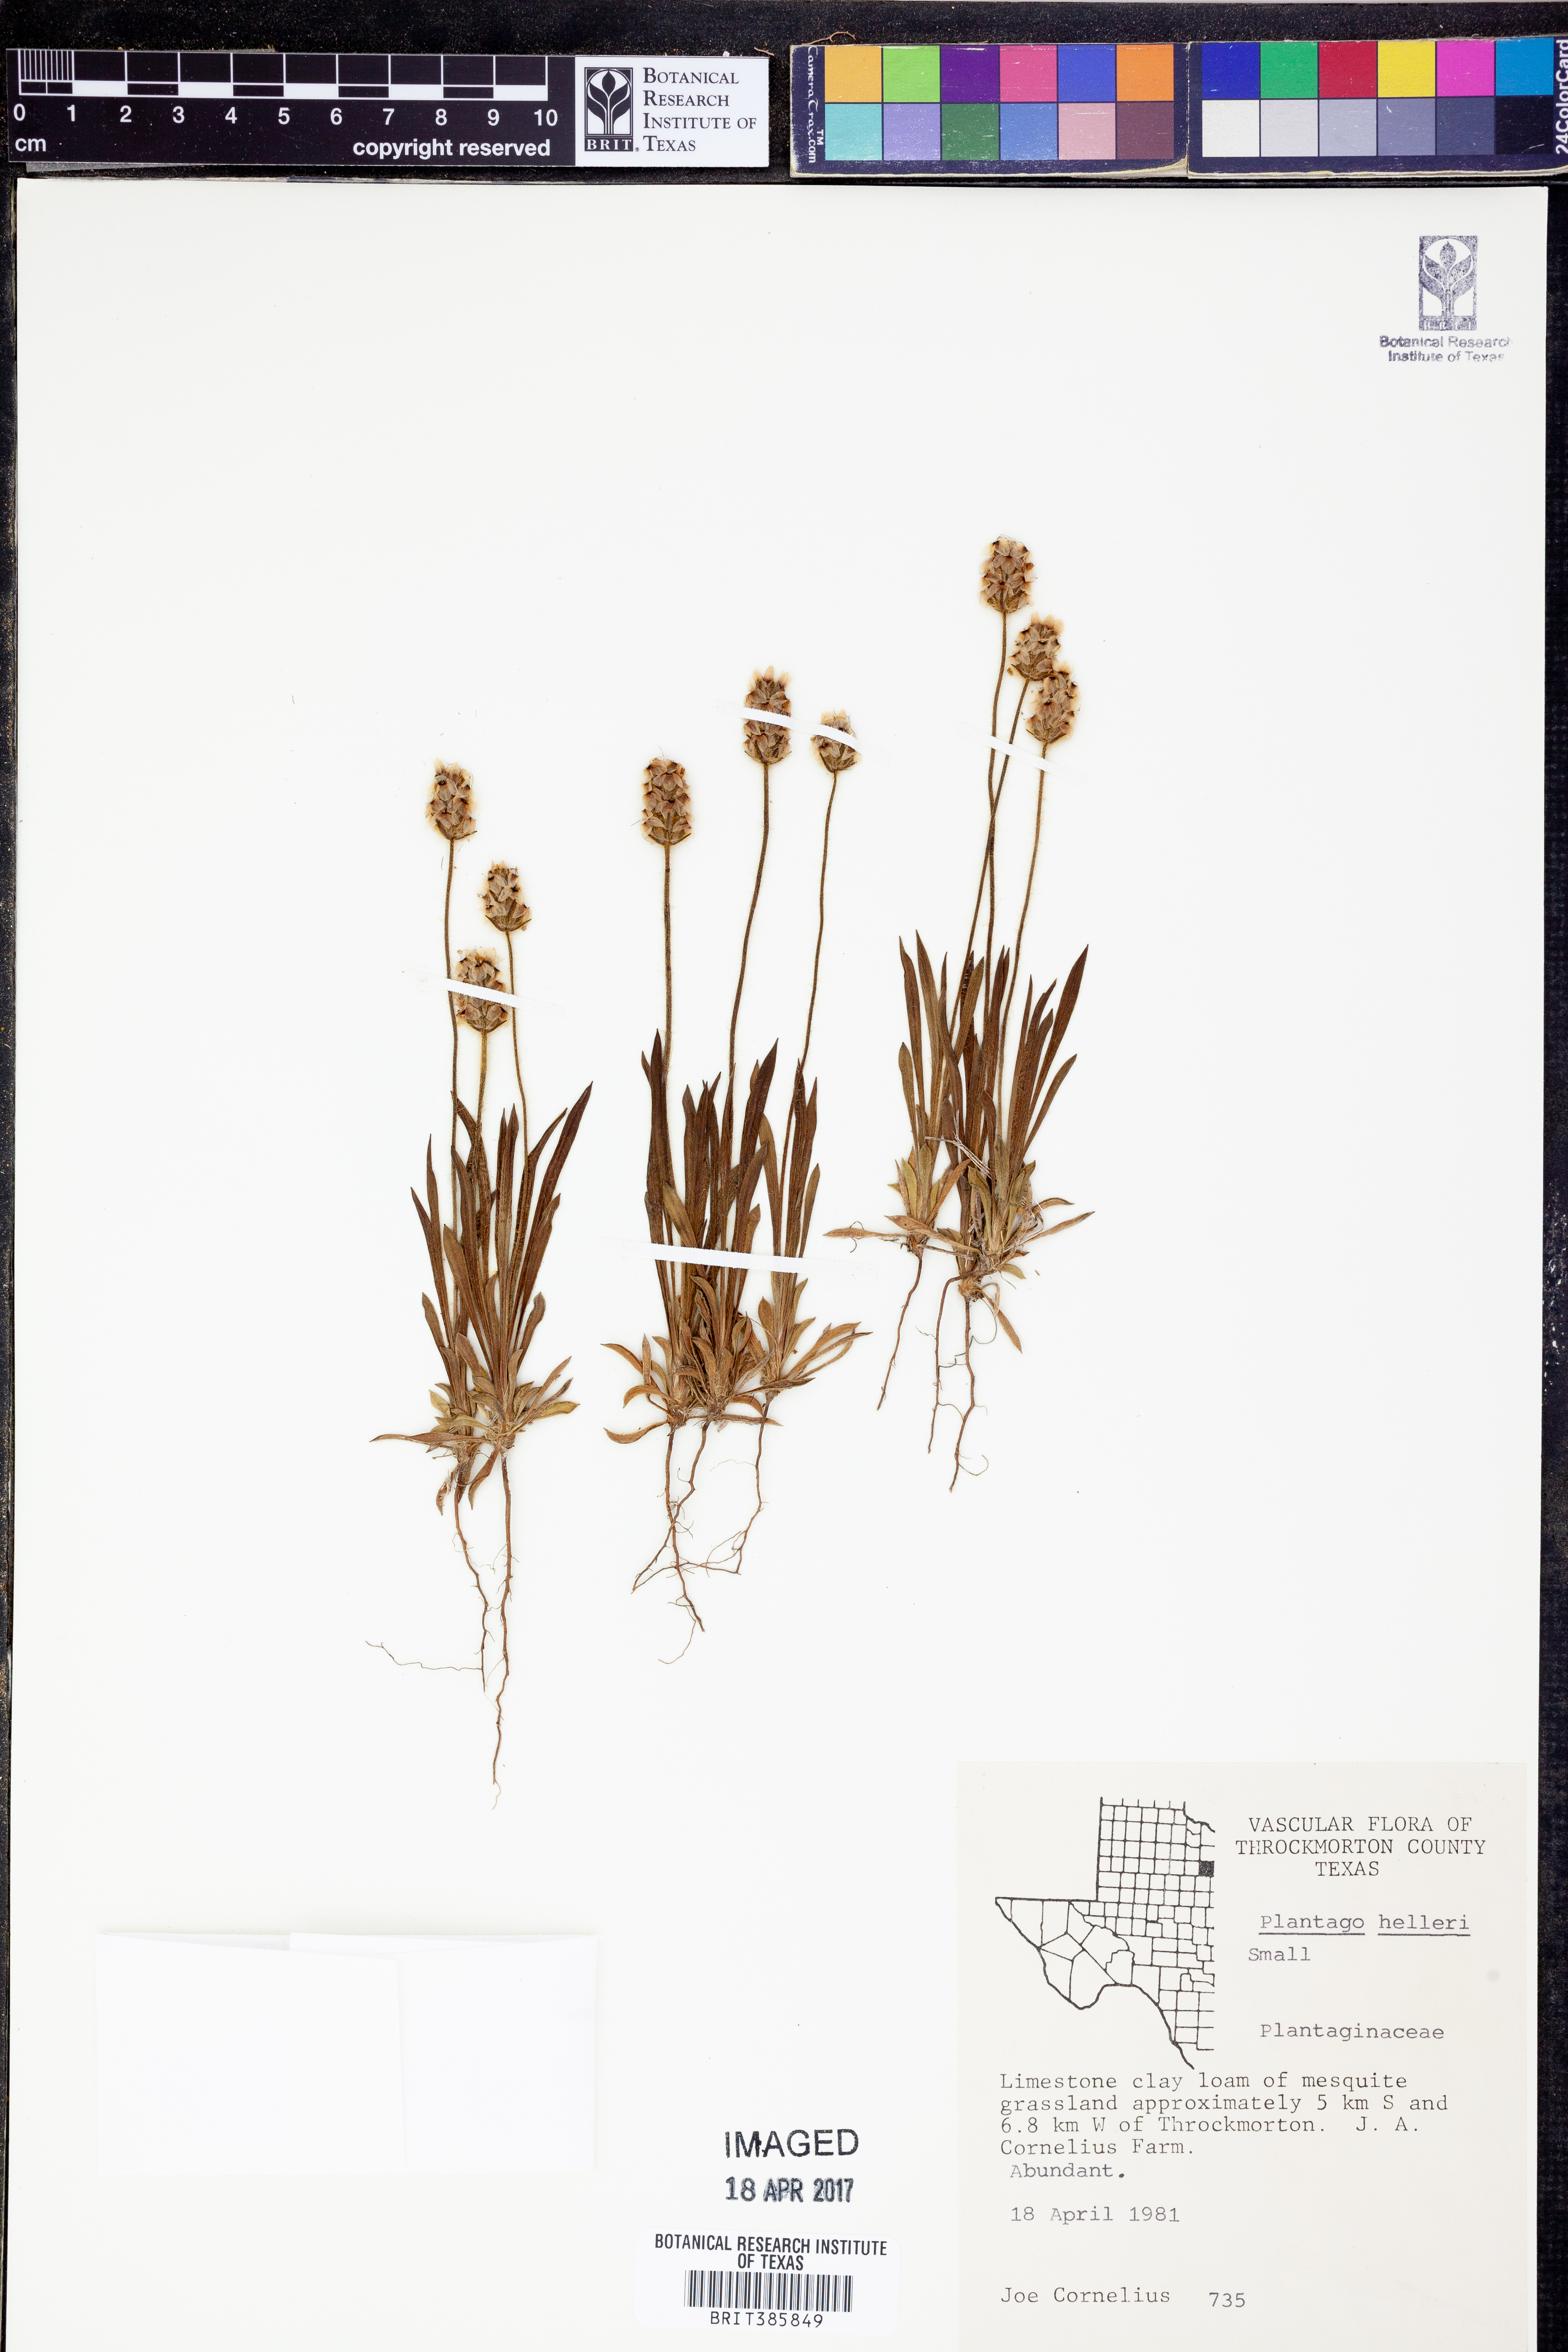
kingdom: Plantae
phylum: Tracheophyta
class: Magnoliopsida
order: Lamiales
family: Plantaginaceae
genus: Plantago
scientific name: Plantago helleri
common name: Heller's plantain
